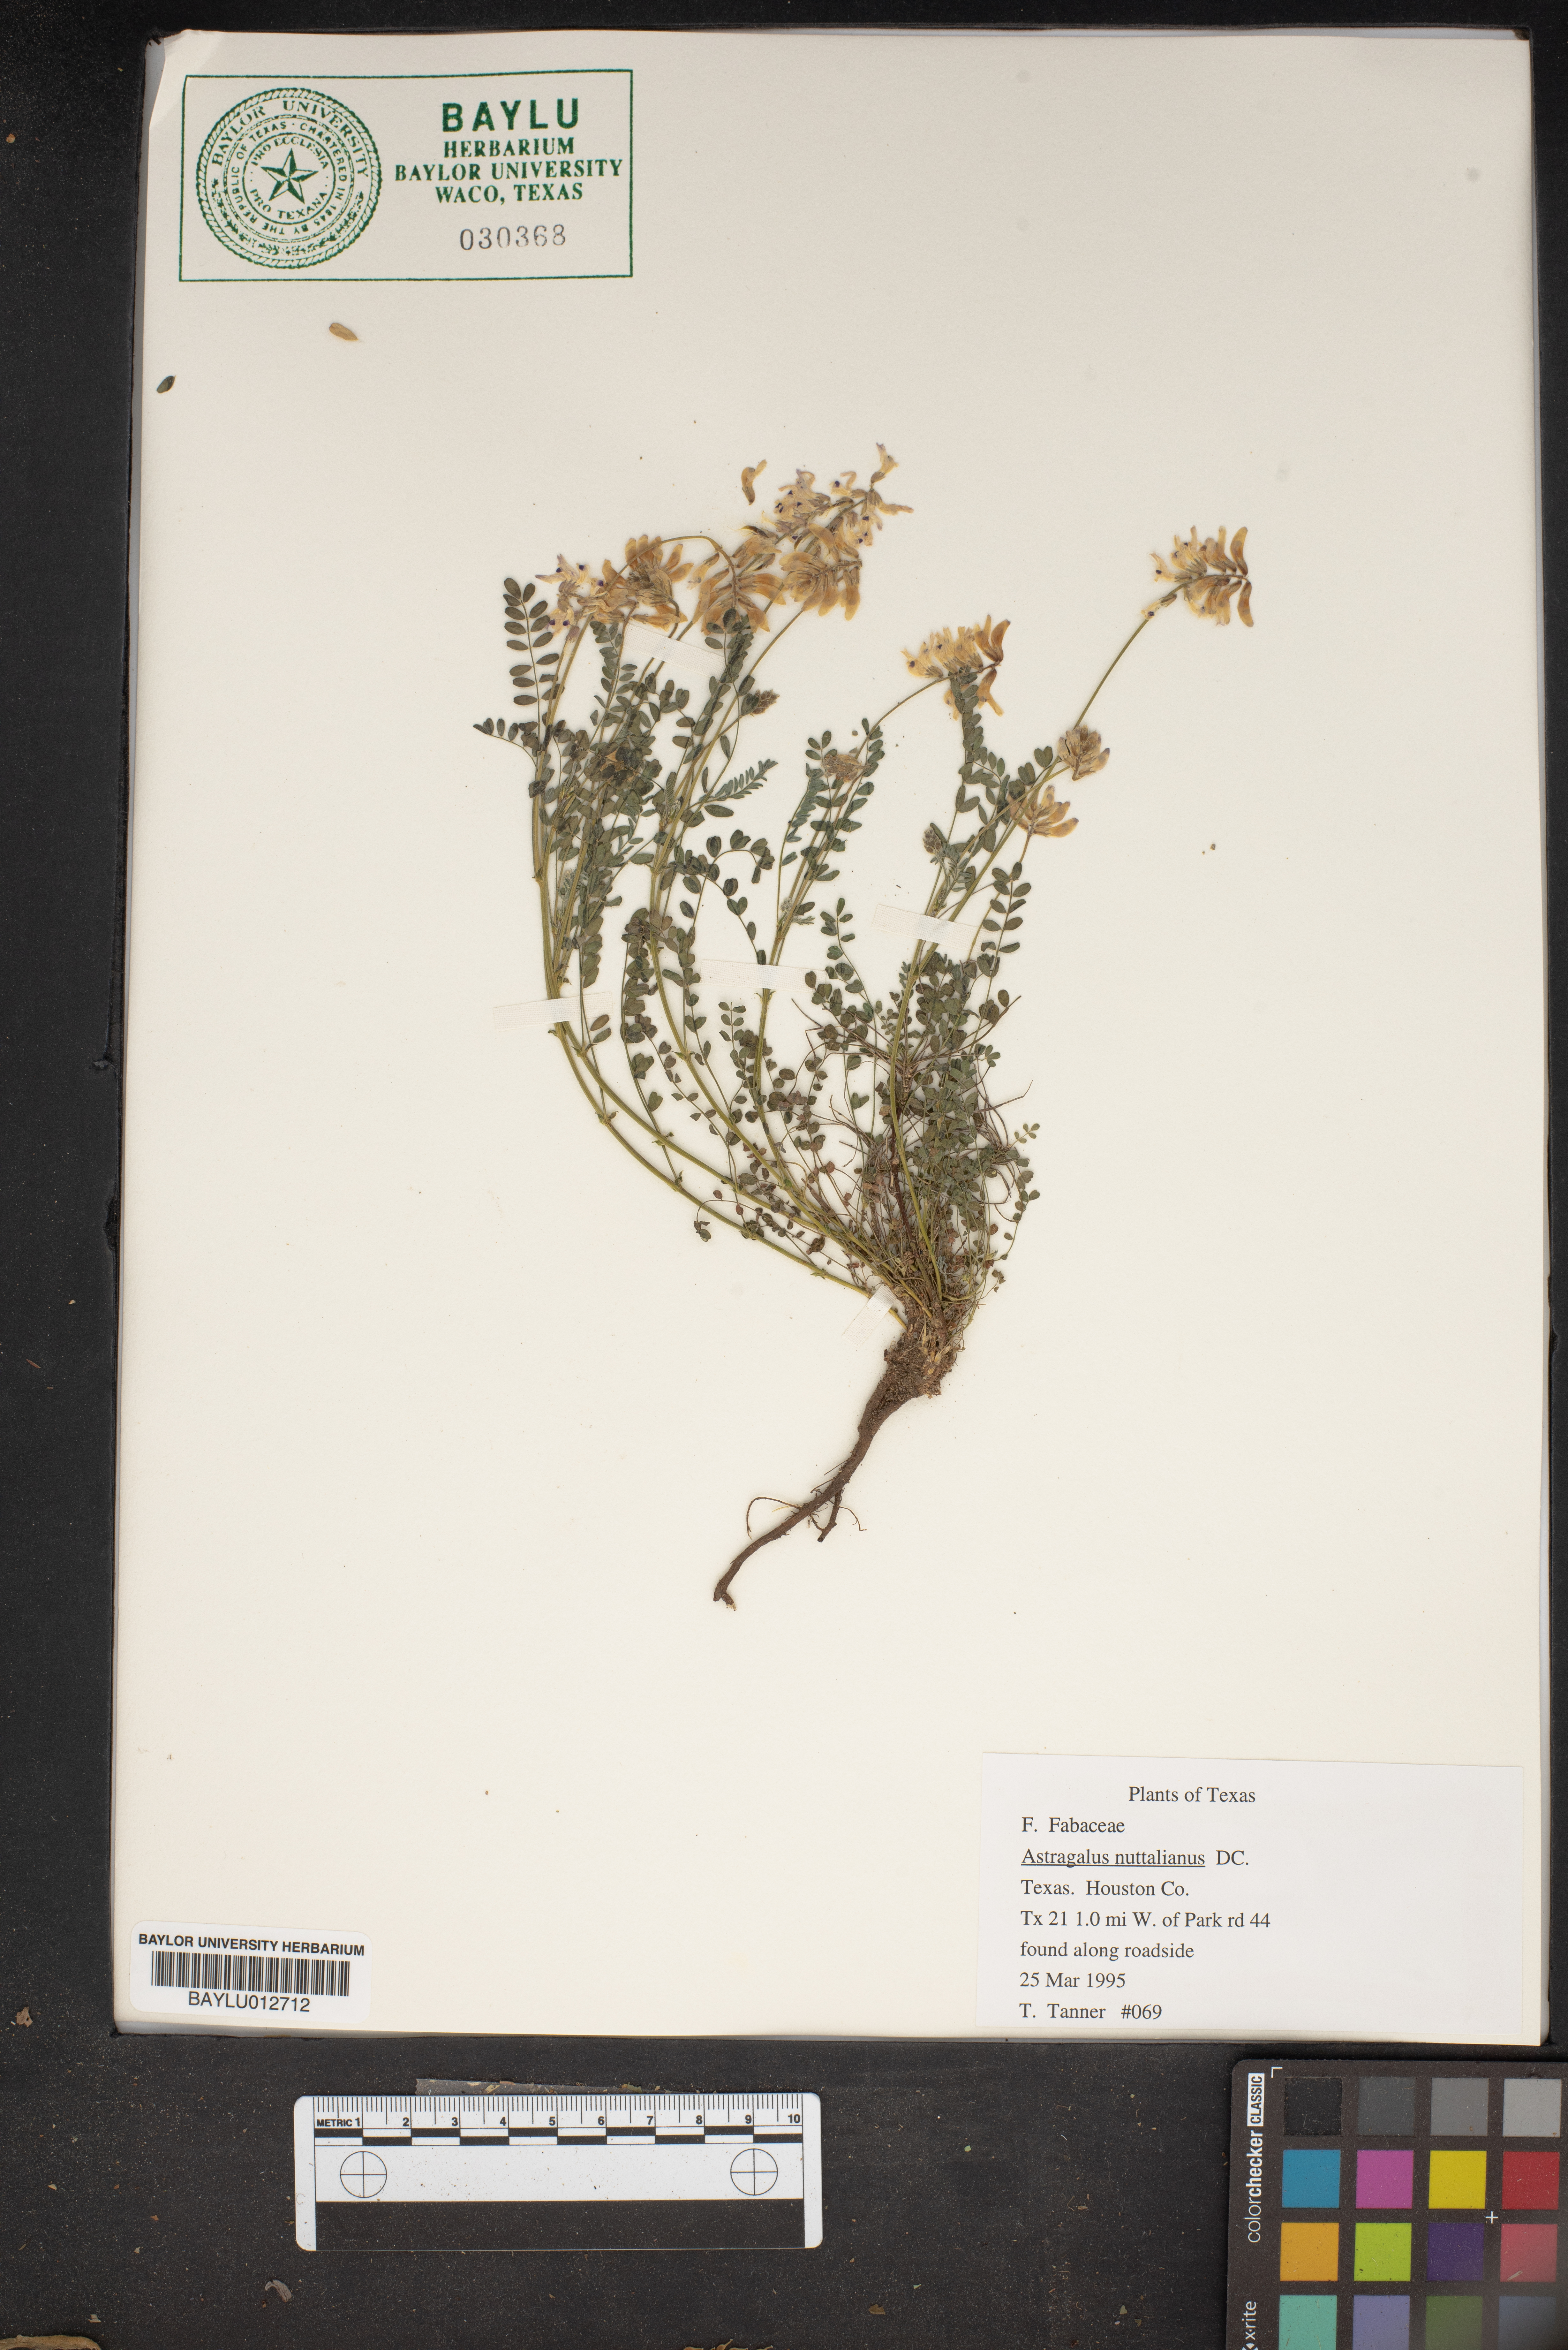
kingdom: Plantae
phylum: Tracheophyta
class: Magnoliopsida
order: Fabales
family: Fabaceae
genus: Astragalus
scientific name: Astragalus nuttallianus
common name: Smallflowered milkvetch
